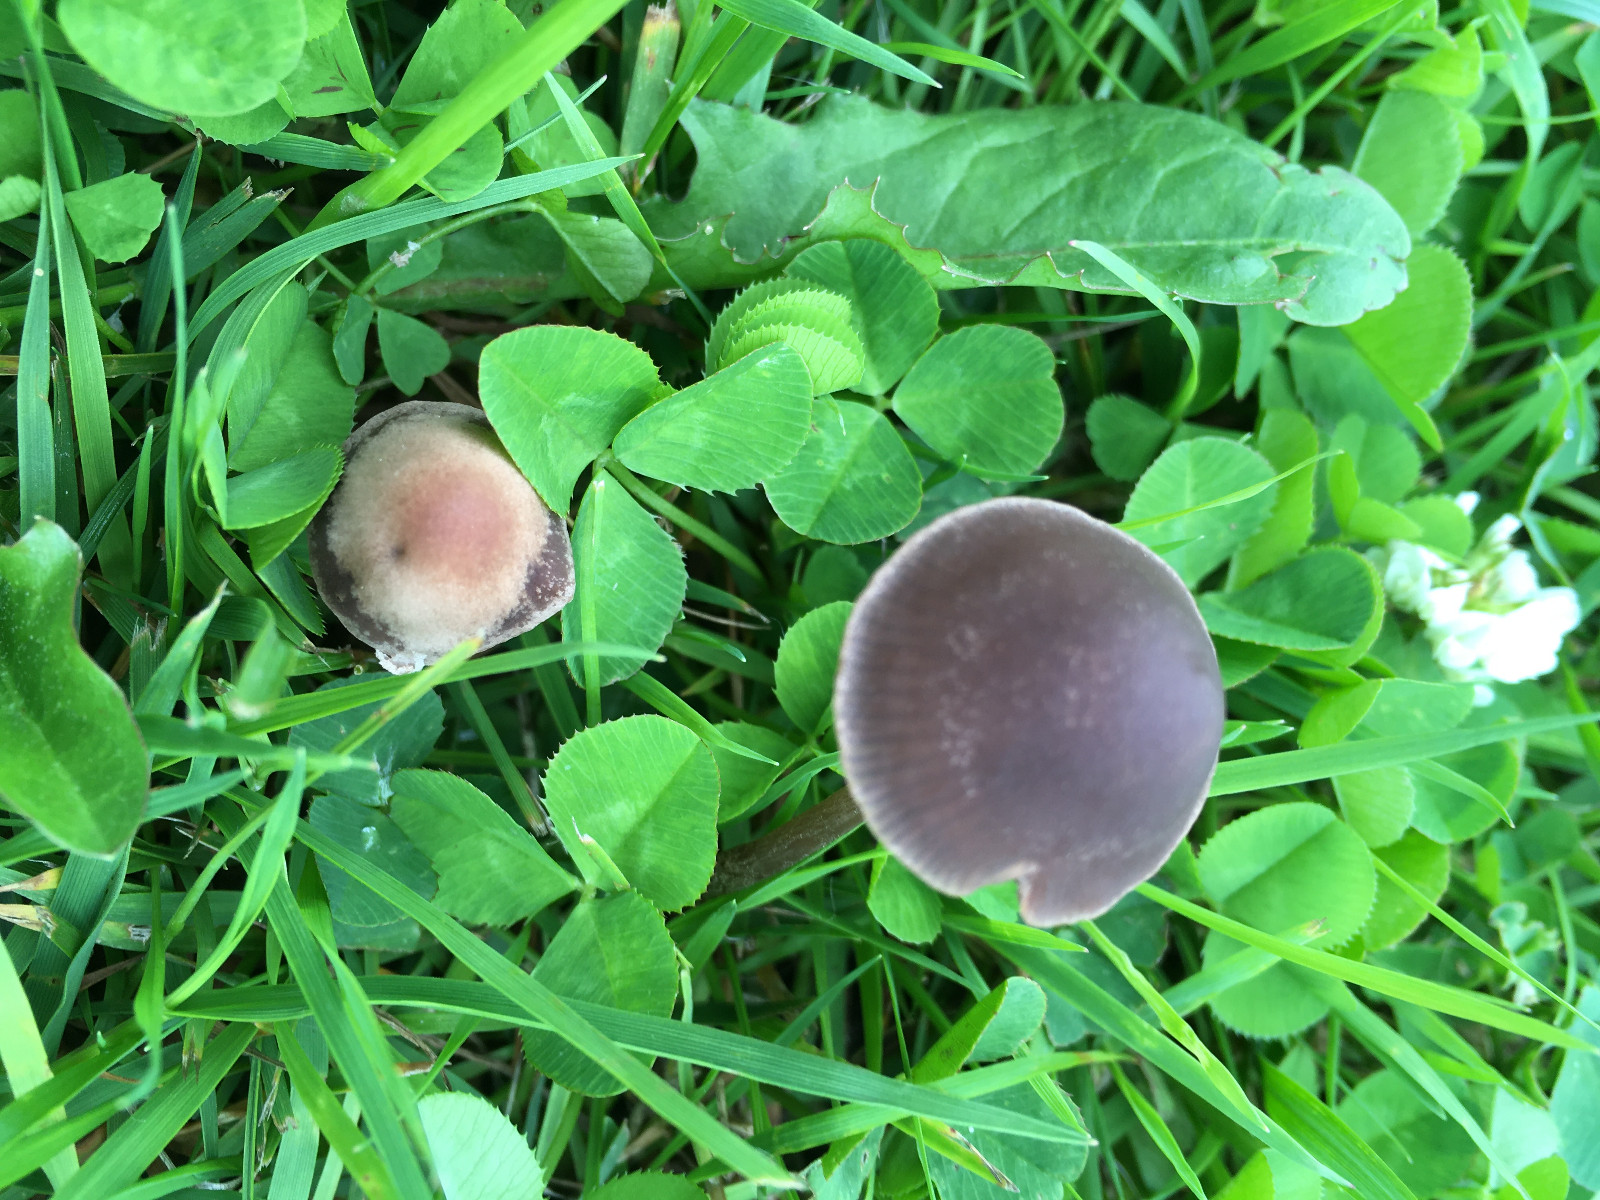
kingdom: Fungi
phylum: Basidiomycota
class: Agaricomycetes
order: Agaricales
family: Bolbitiaceae
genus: Panaeolina
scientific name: Panaeolina foenisecii
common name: høslætsvamp
